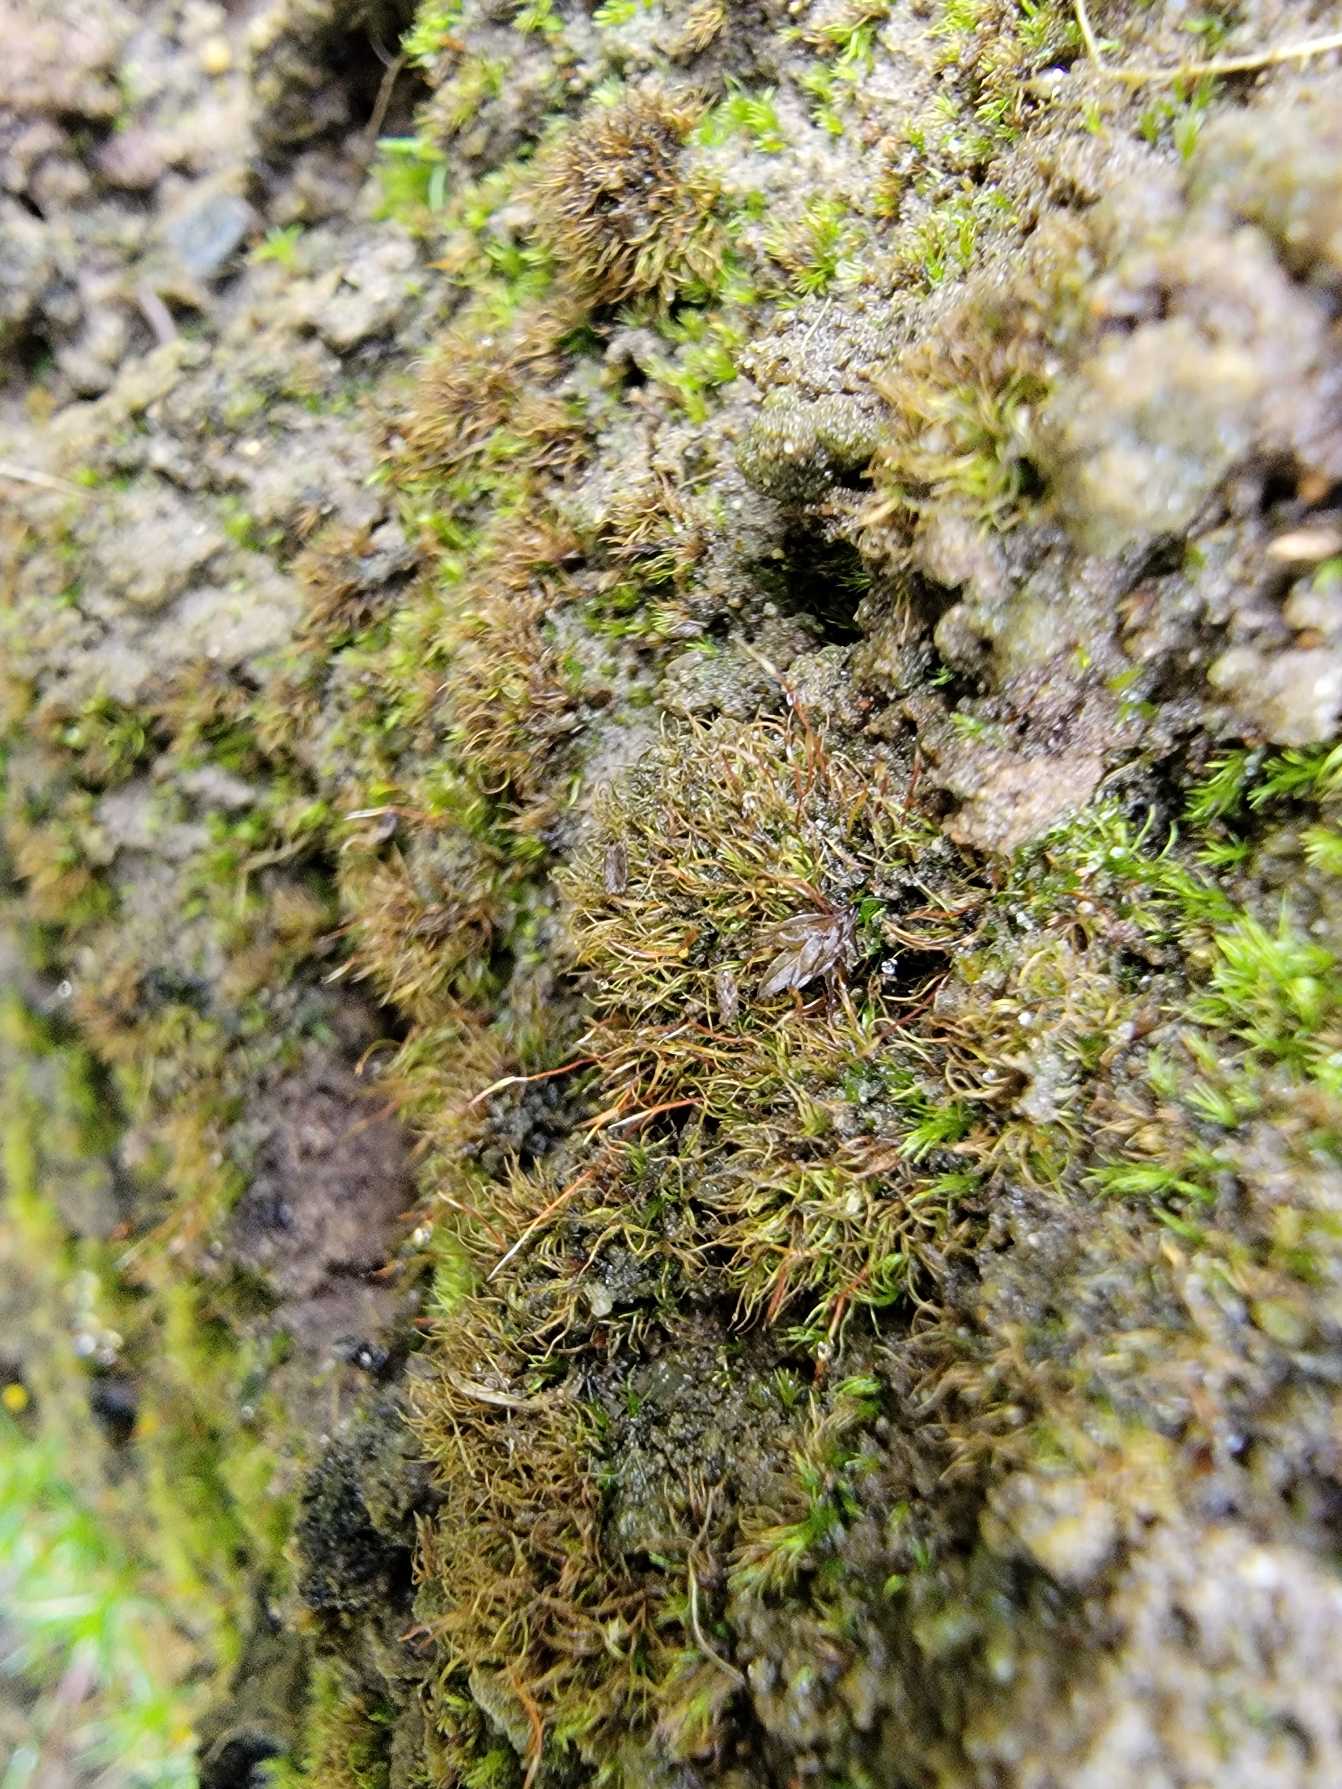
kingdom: Plantae
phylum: Bryophyta
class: Bryopsida
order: Dicranales
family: Dicranellaceae
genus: Dicranella
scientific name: Dicranella subulata
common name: Sylbladet fløjlsmos
